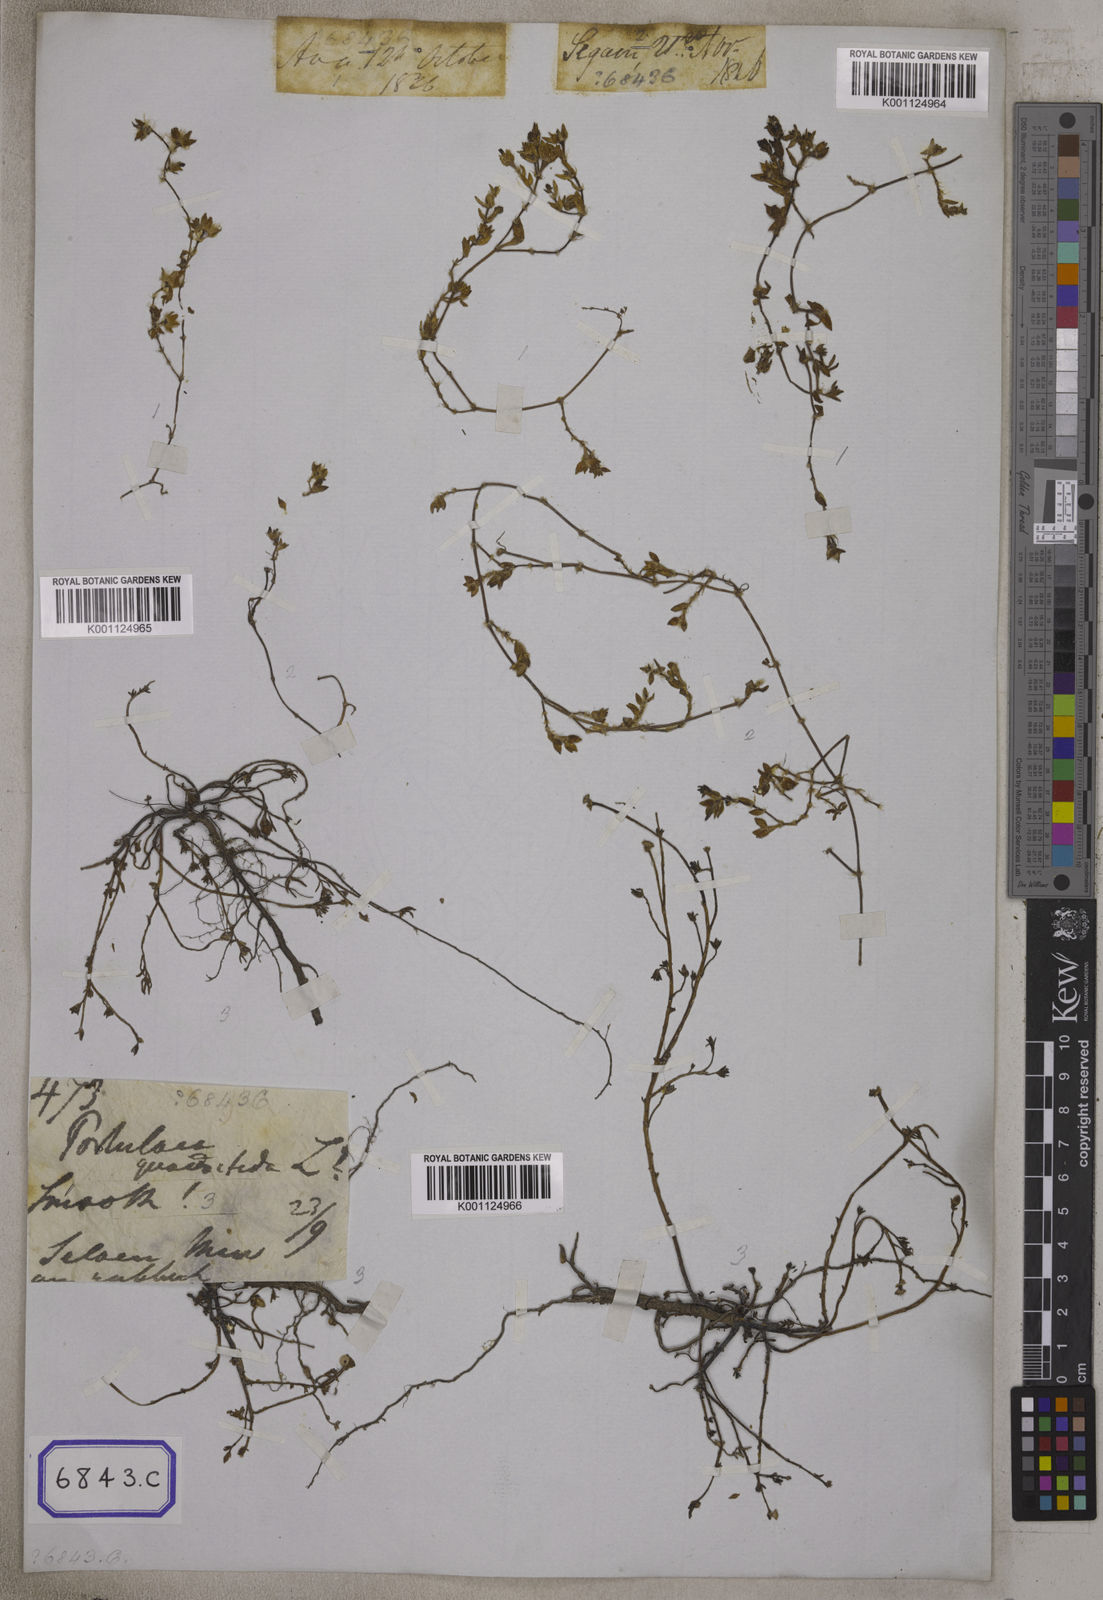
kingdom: Plantae
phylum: Tracheophyta
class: Magnoliopsida
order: Caryophyllales
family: Portulacaceae
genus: Portulaca
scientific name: Portulaca quadrifida
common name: Chickenweed
